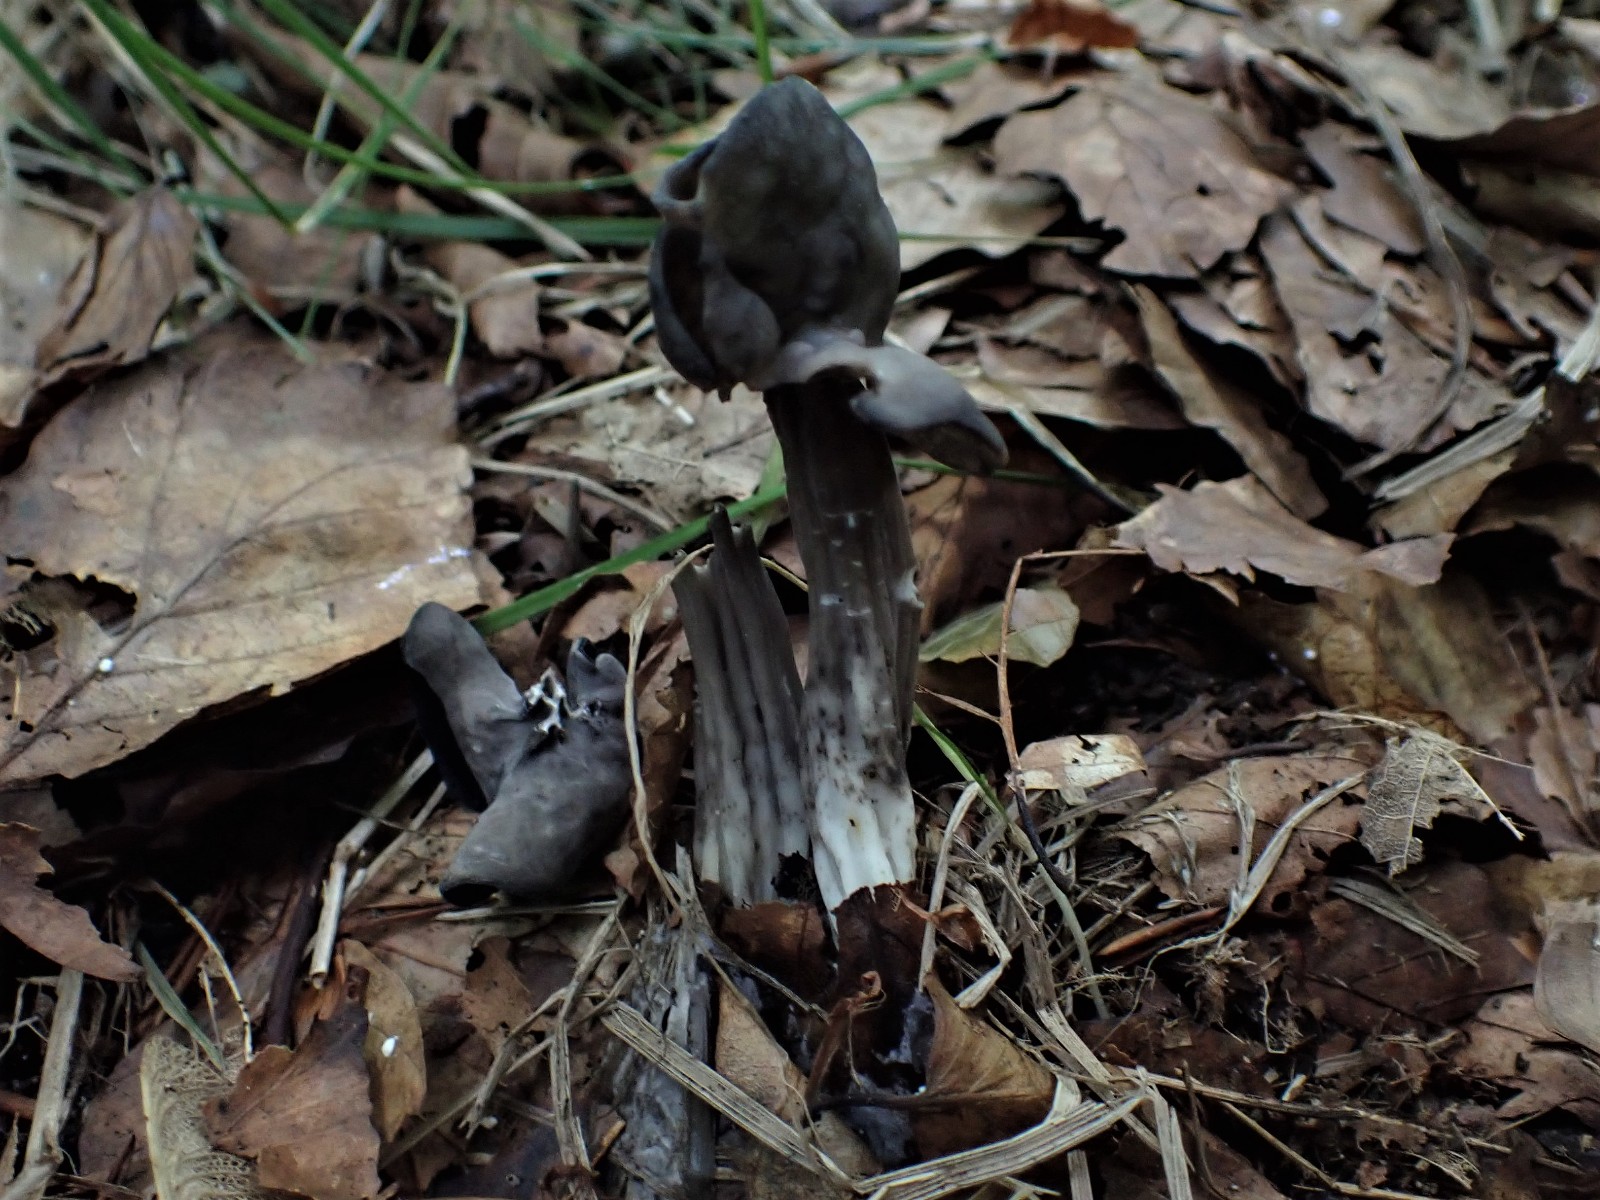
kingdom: Fungi
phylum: Ascomycota
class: Pezizomycetes
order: Pezizales
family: Helvellaceae
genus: Helvella
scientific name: Helvella lacunosa
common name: grubet foldhat
